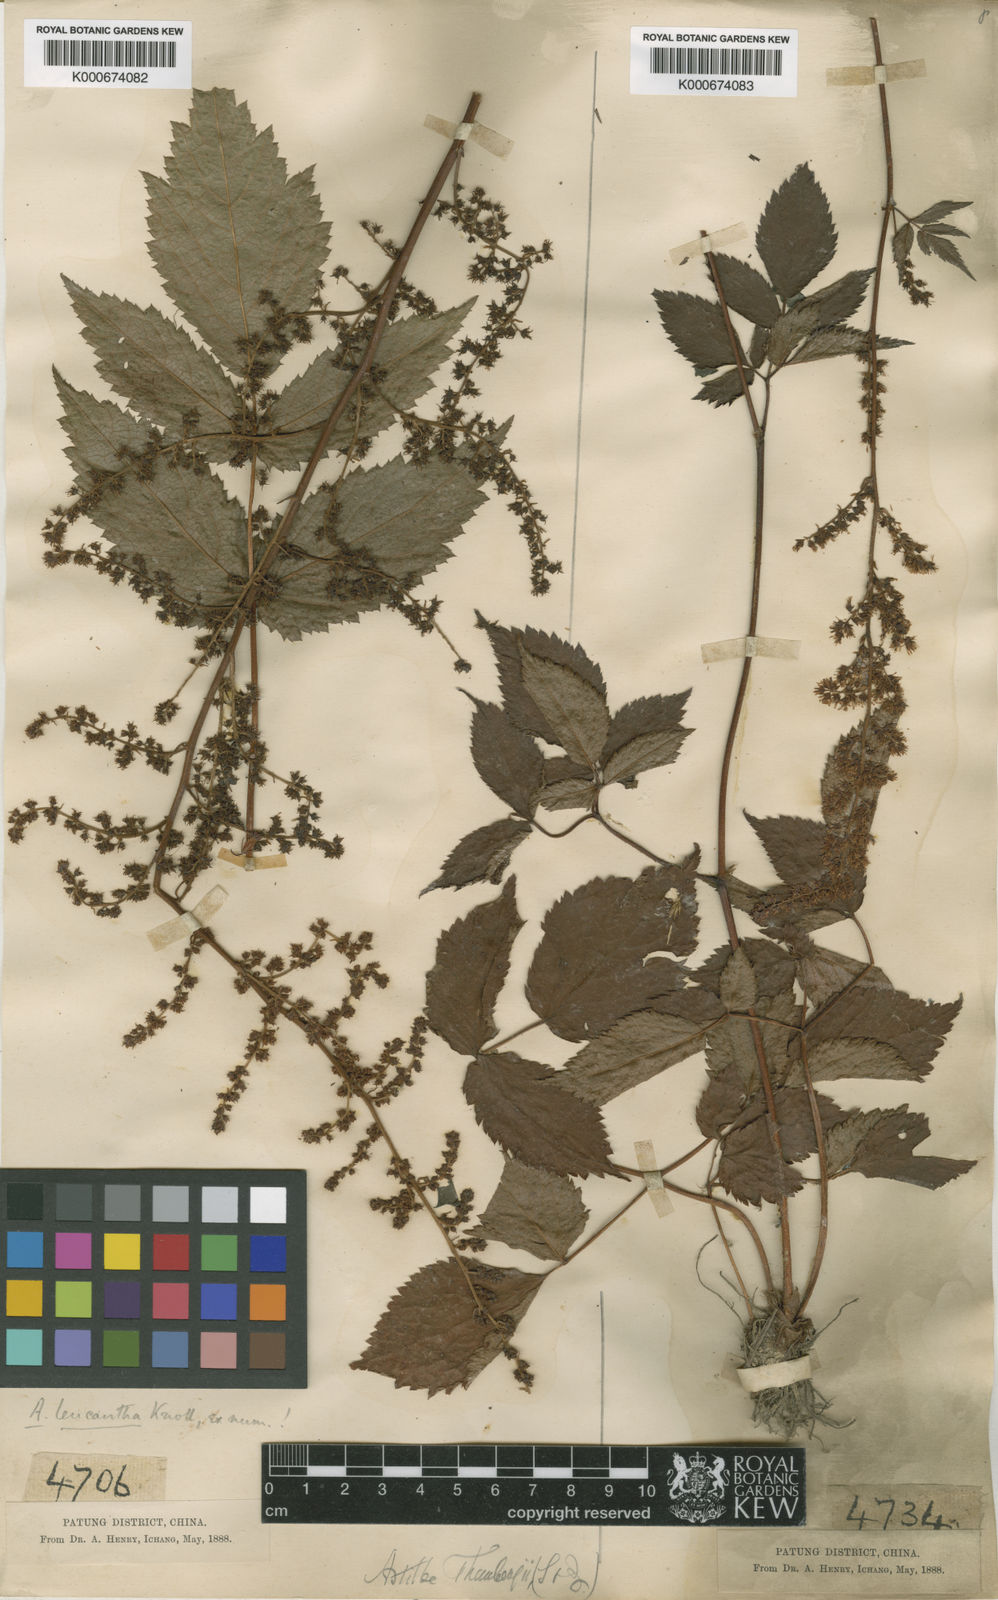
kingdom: Plantae
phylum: Tracheophyta
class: Magnoliopsida
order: Saxifragales
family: Saxifragaceae
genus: Astilbe
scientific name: Astilbe grandis
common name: Korean astilbe
